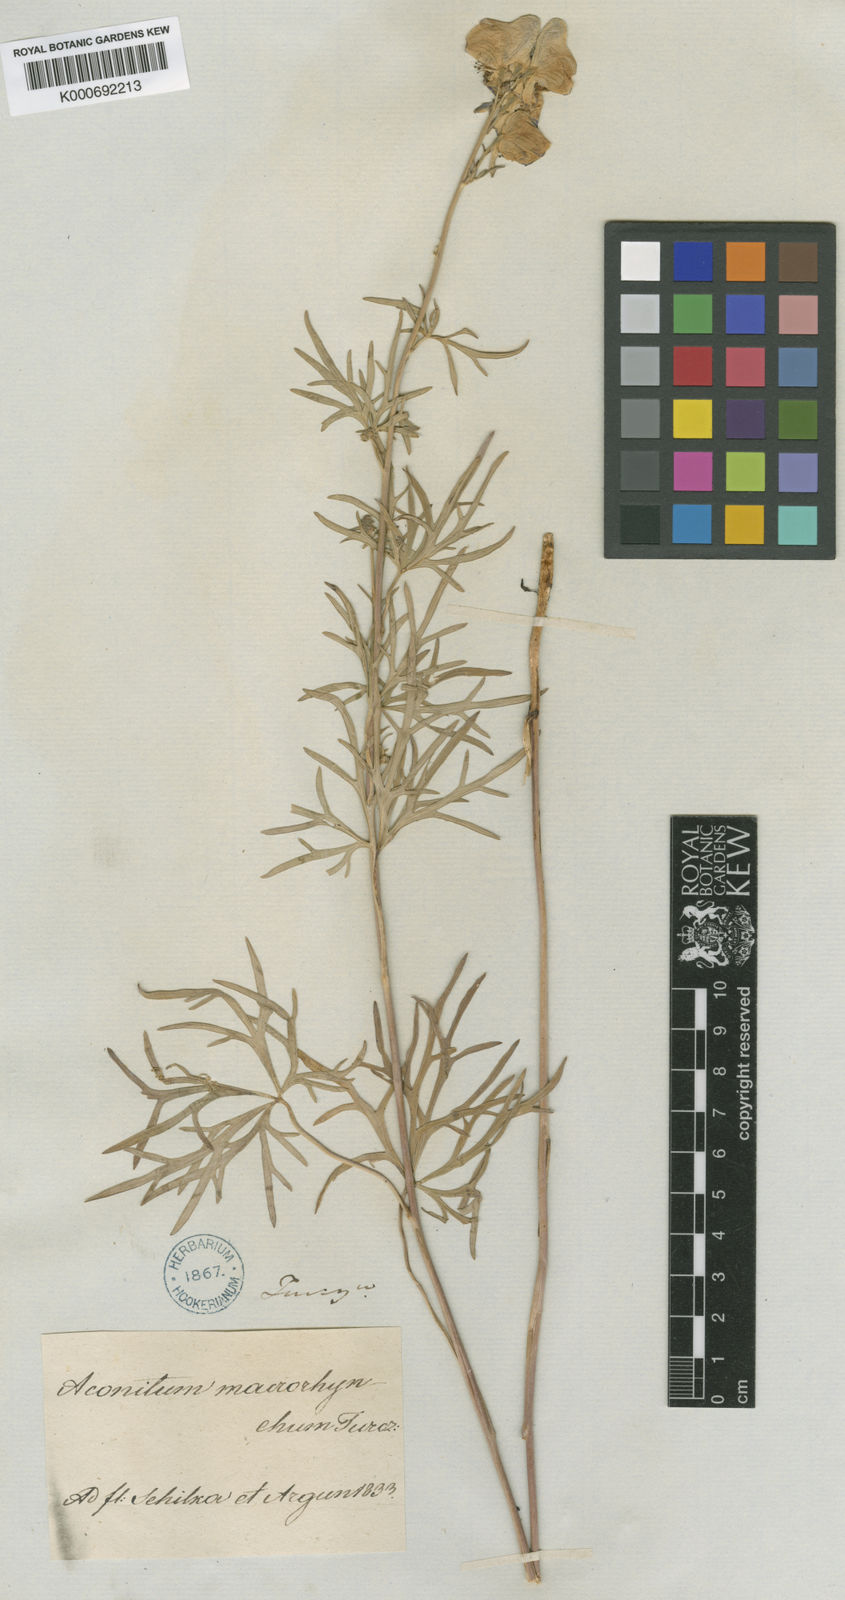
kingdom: Plantae
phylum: Tracheophyta
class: Magnoliopsida
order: Ranunculales
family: Ranunculaceae
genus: Aconitum
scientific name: Aconitum macrorhynchum
